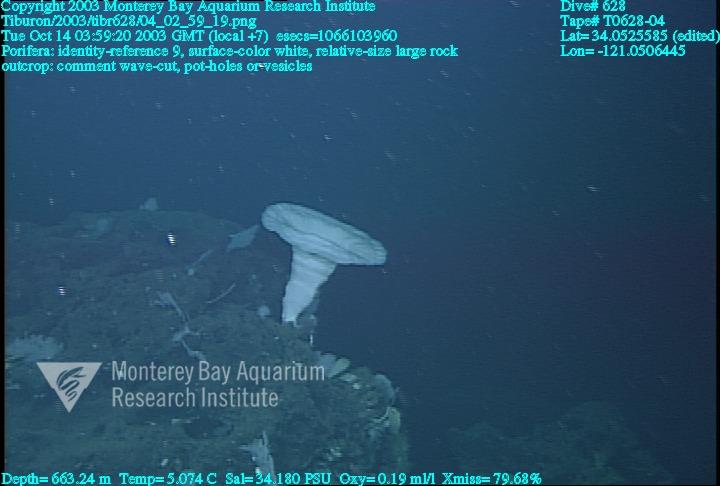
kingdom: Animalia
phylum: Porifera
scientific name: Porifera
